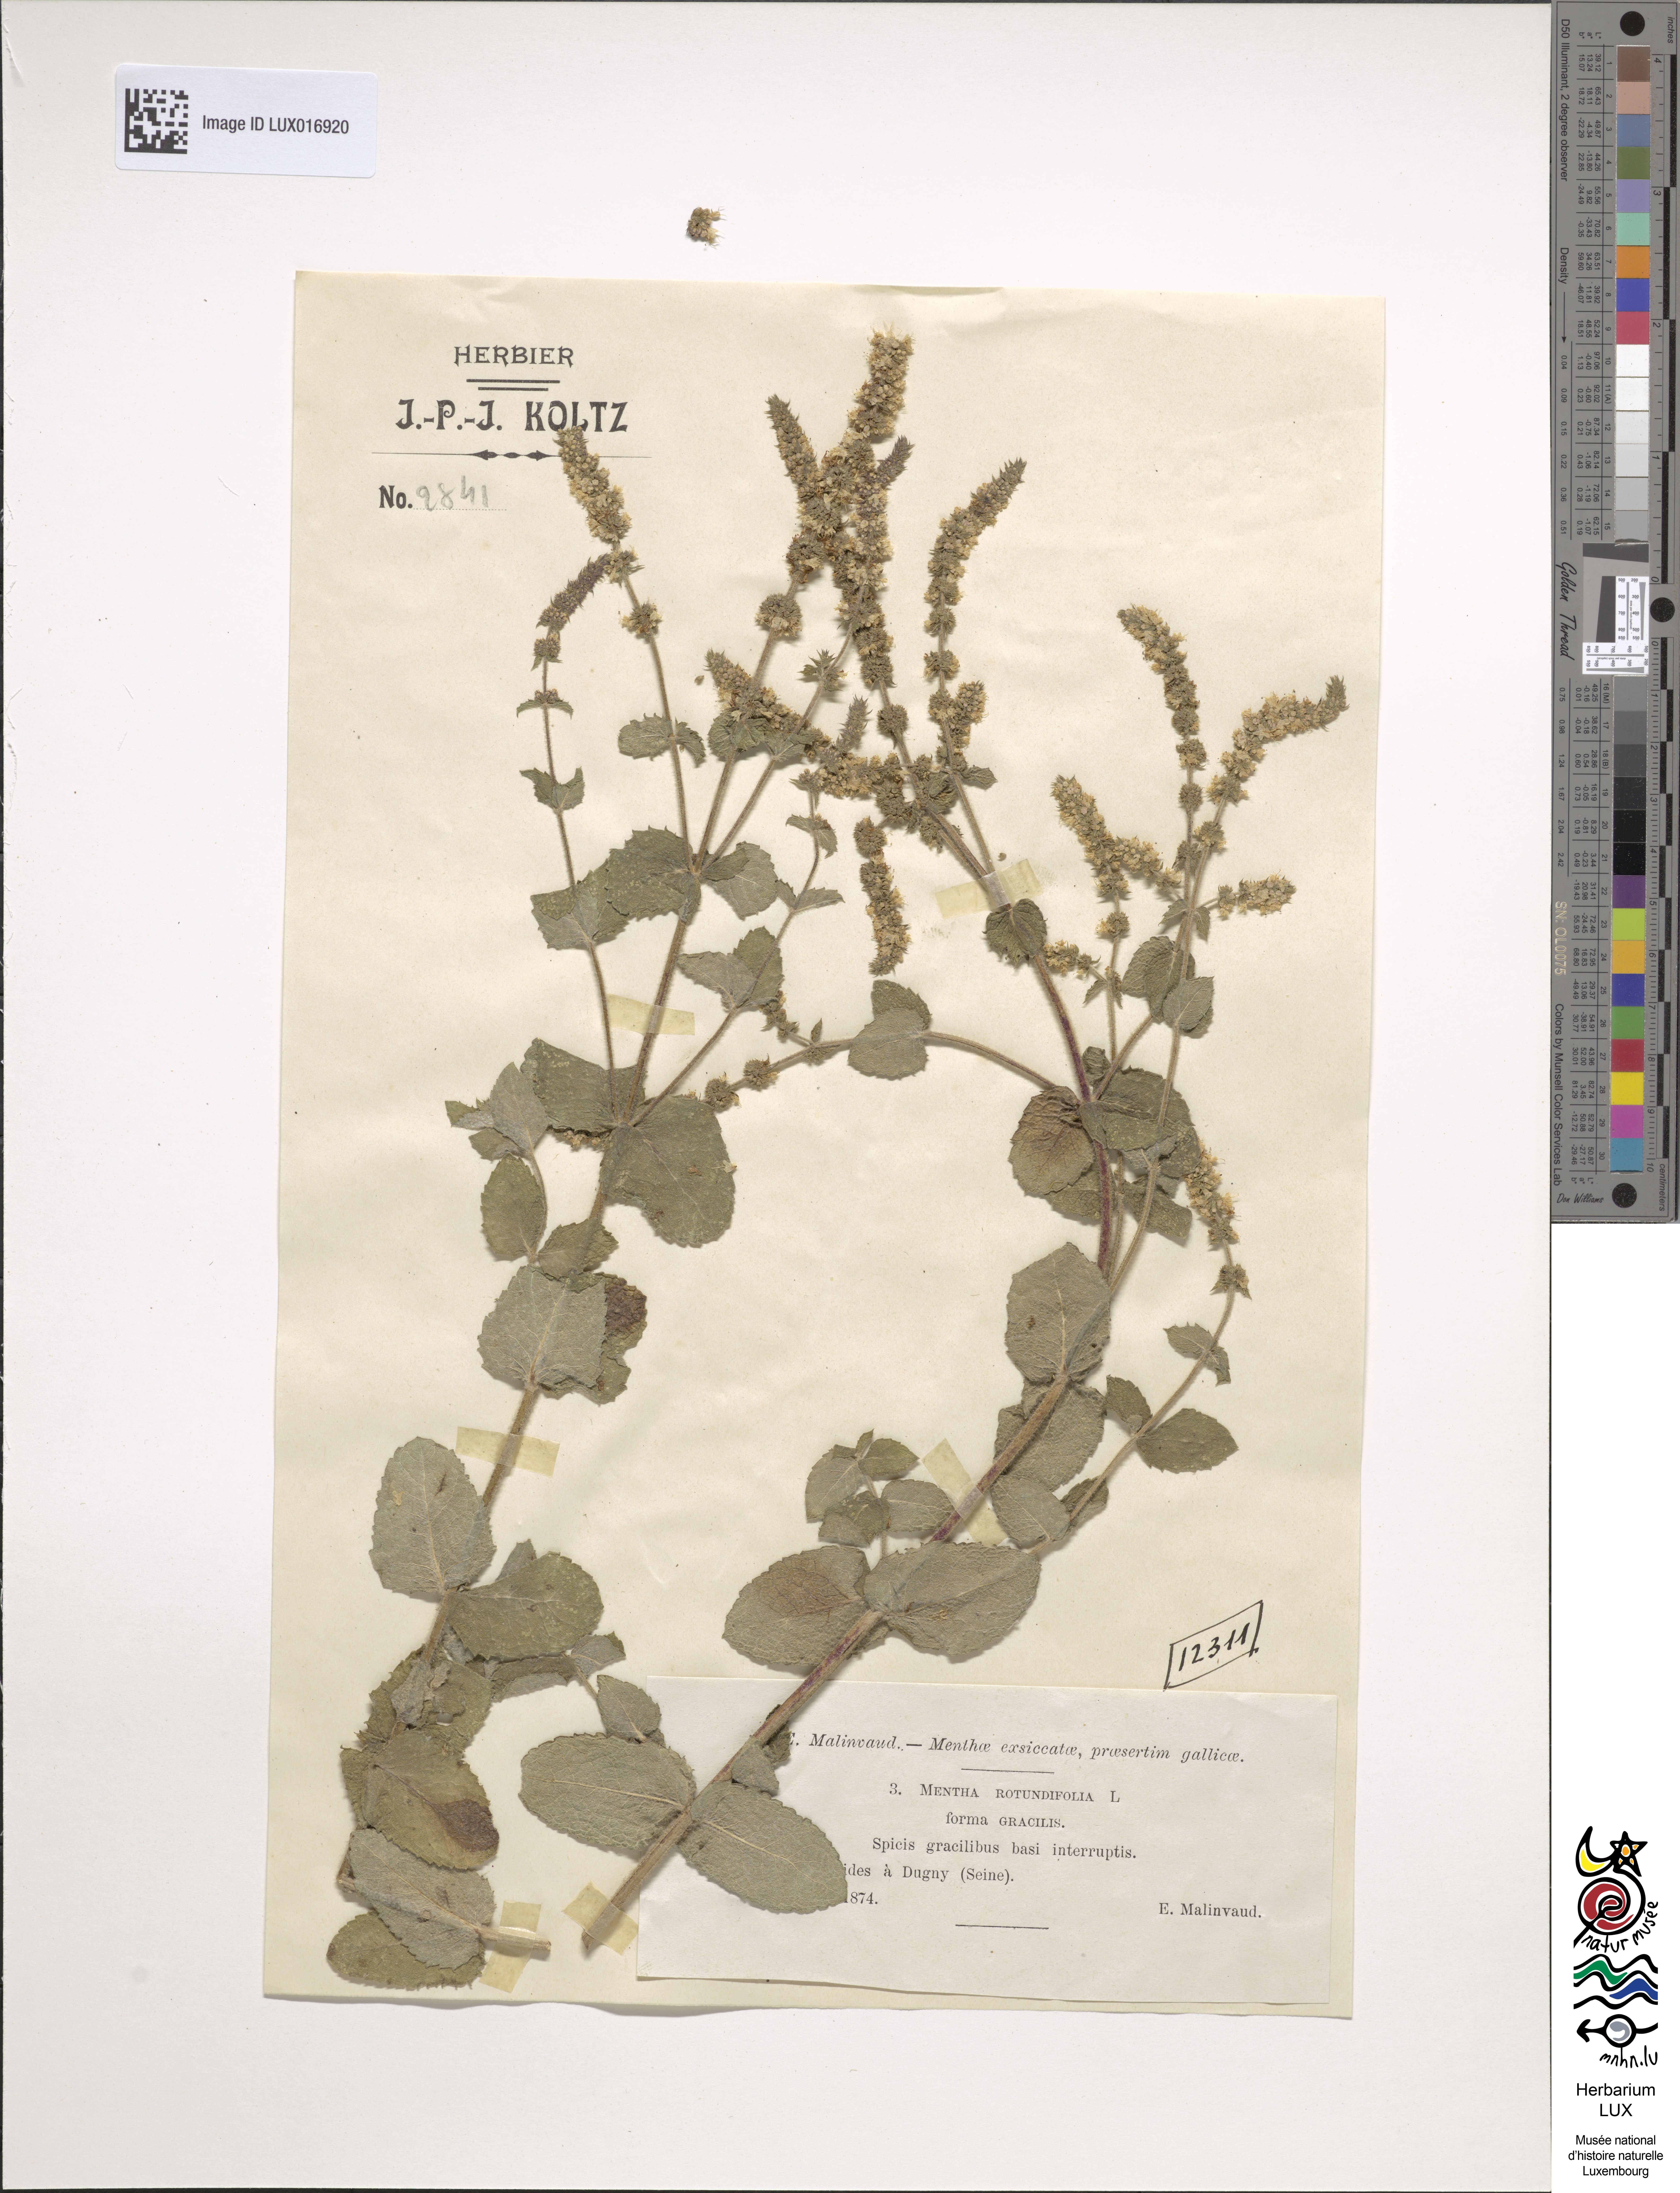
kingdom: Plantae
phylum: Tracheophyta
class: Magnoliopsida
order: Lamiales
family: Lamiaceae
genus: Mentha
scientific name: Mentha rotundifolia
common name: Bigleaf mint
